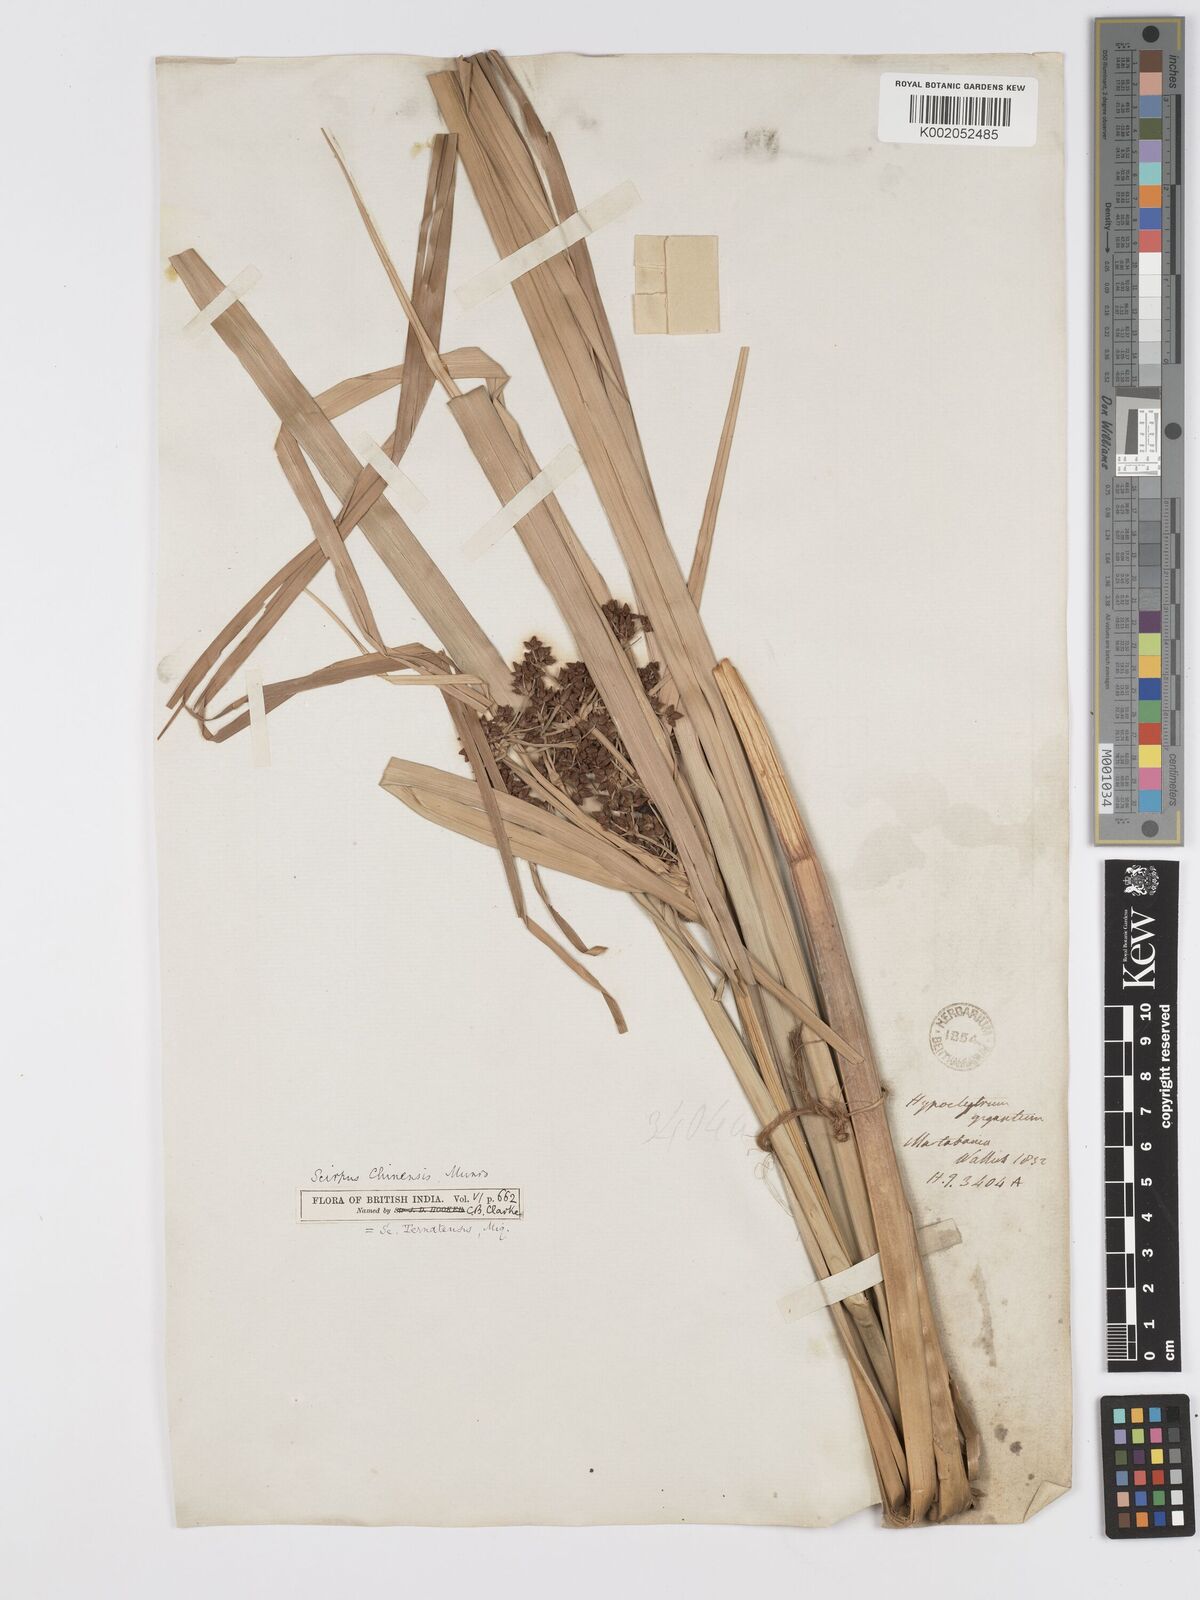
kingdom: Plantae
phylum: Tracheophyta
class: Liliopsida
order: Poales
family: Cyperaceae
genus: Scirpus
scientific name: Scirpus ternatanus
